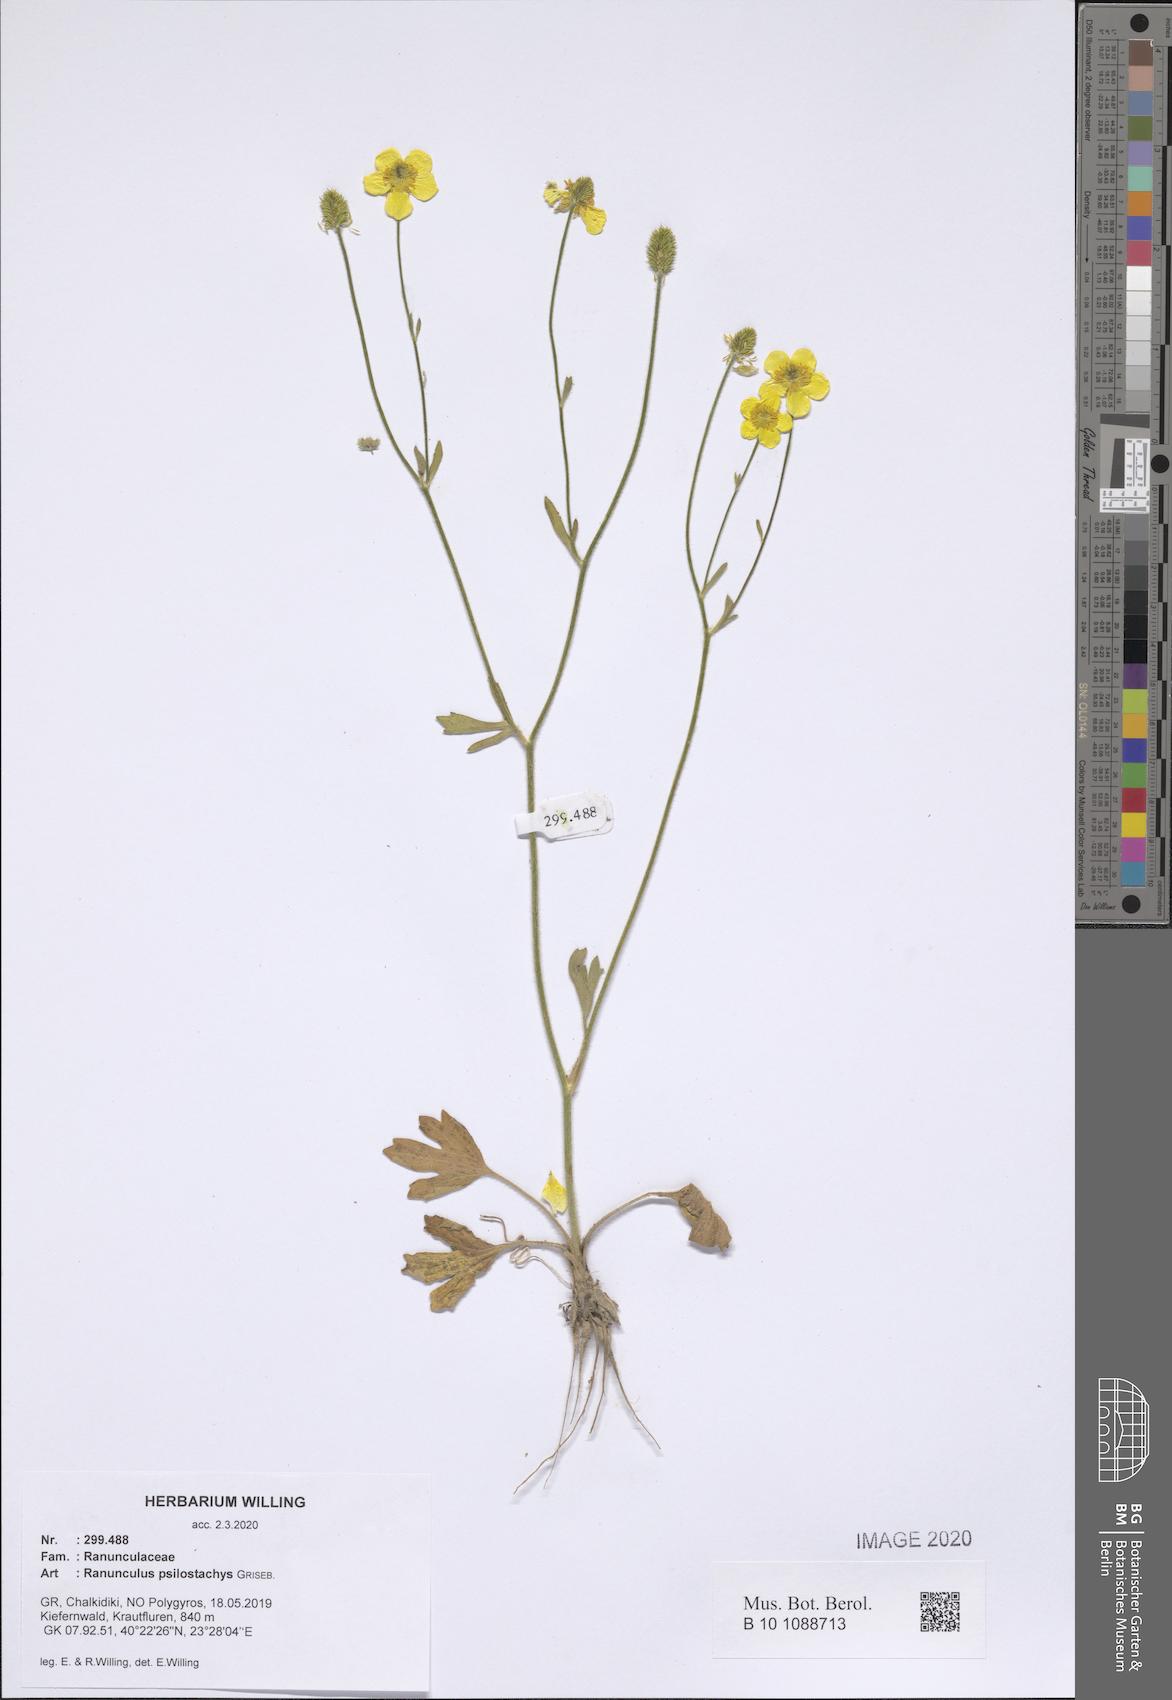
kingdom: Plantae
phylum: Tracheophyta
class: Magnoliopsida
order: Ranunculales
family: Ranunculaceae
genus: Ranunculus
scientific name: Ranunculus psilostachys
